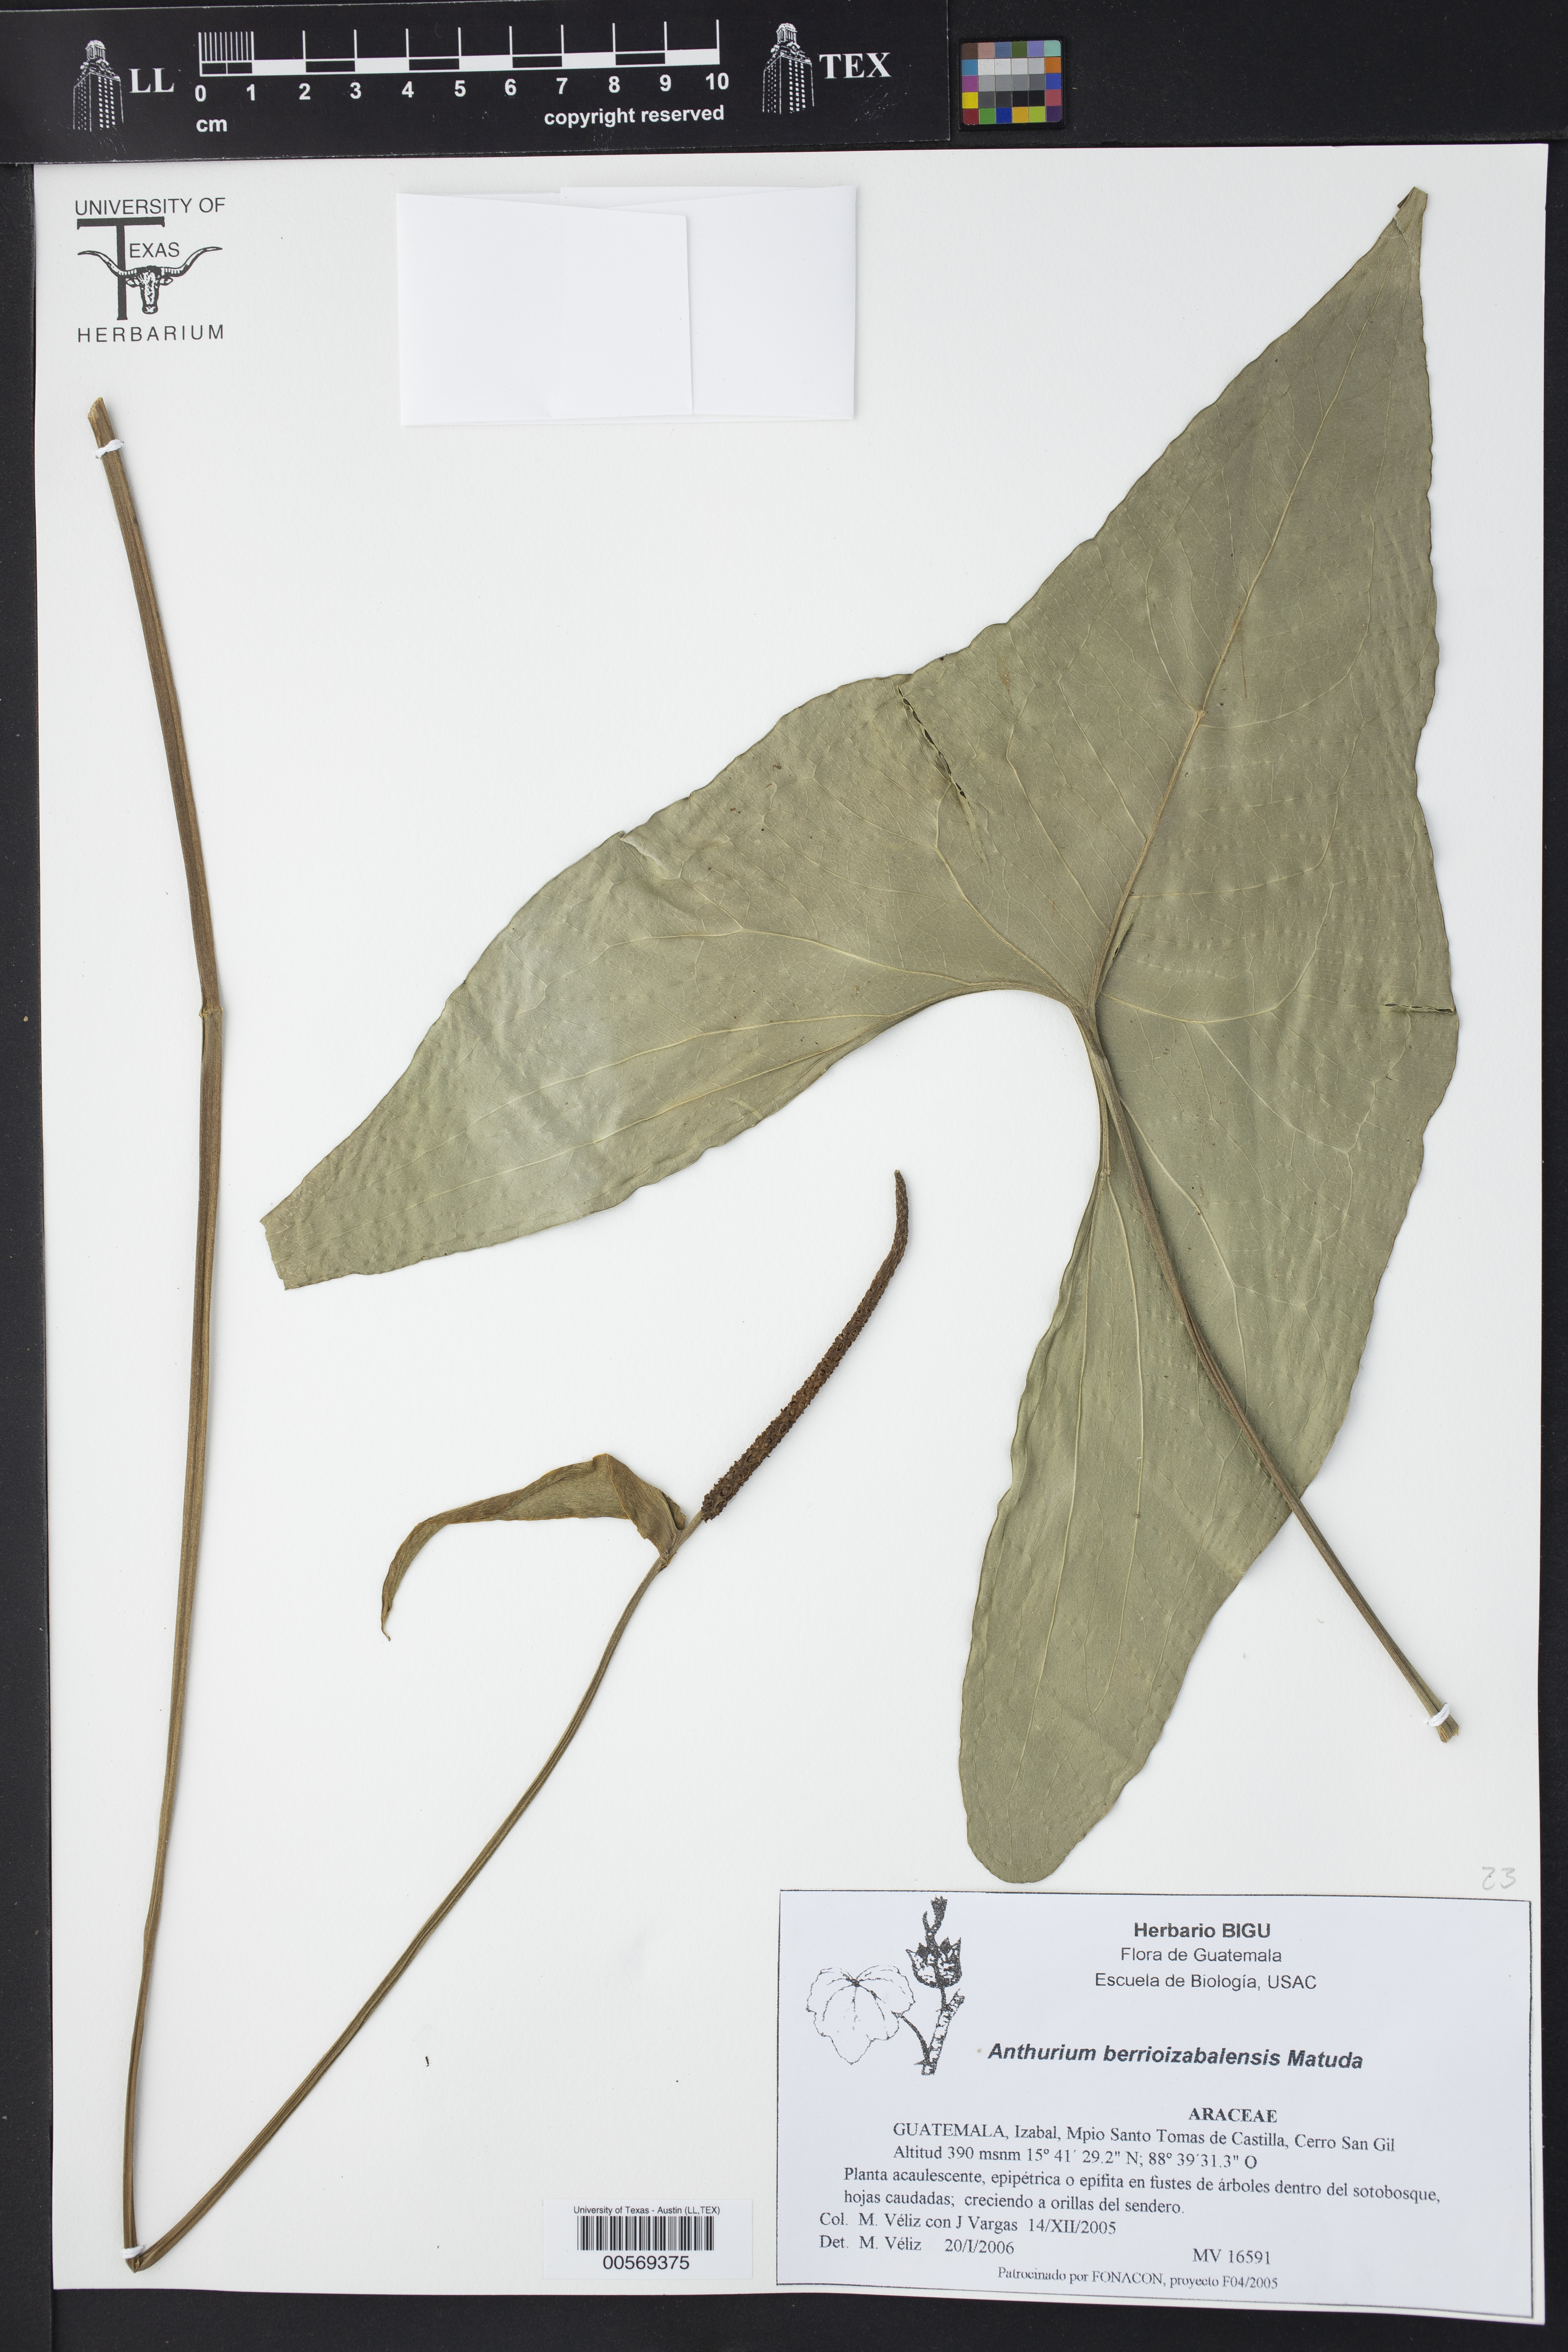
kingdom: Plantae
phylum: Tracheophyta
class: Liliopsida
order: Alismatales
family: Araceae
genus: Anthurium
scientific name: Anthurium berriozabalense
